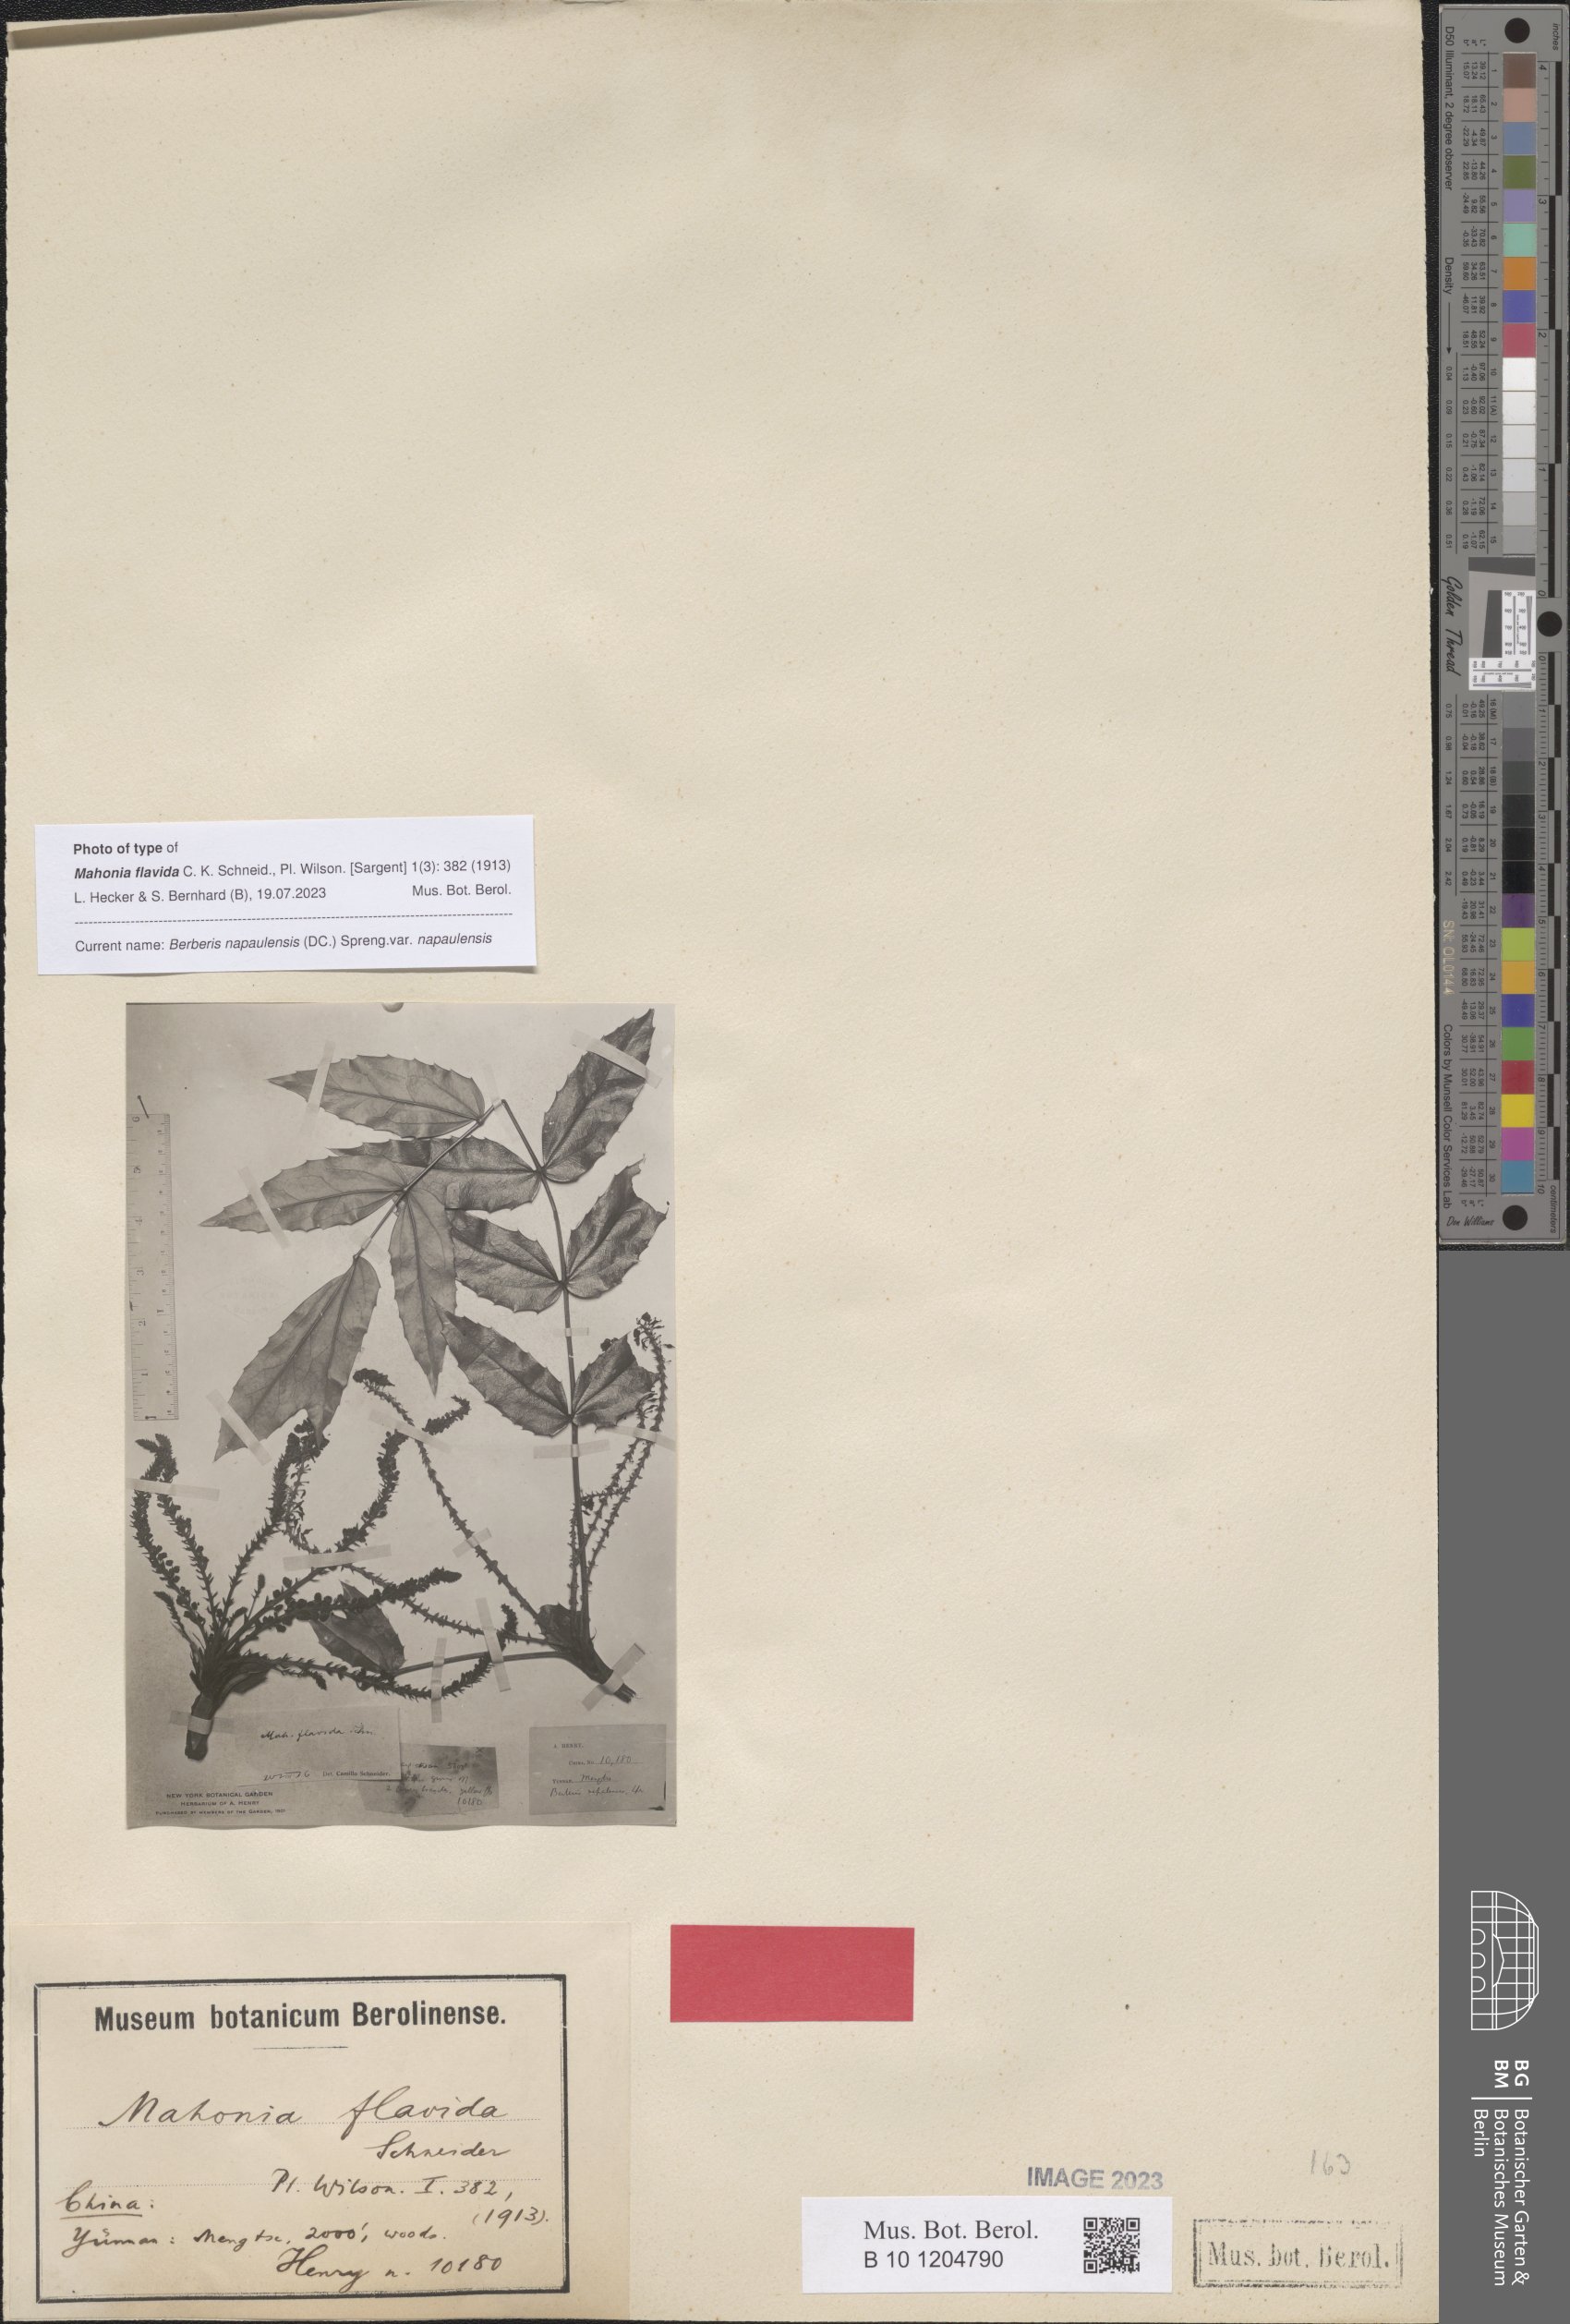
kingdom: Plantae
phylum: Tracheophyta
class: Magnoliopsida
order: Ranunculales
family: Berberidaceae
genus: Mahonia
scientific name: Mahonia napaulensis
